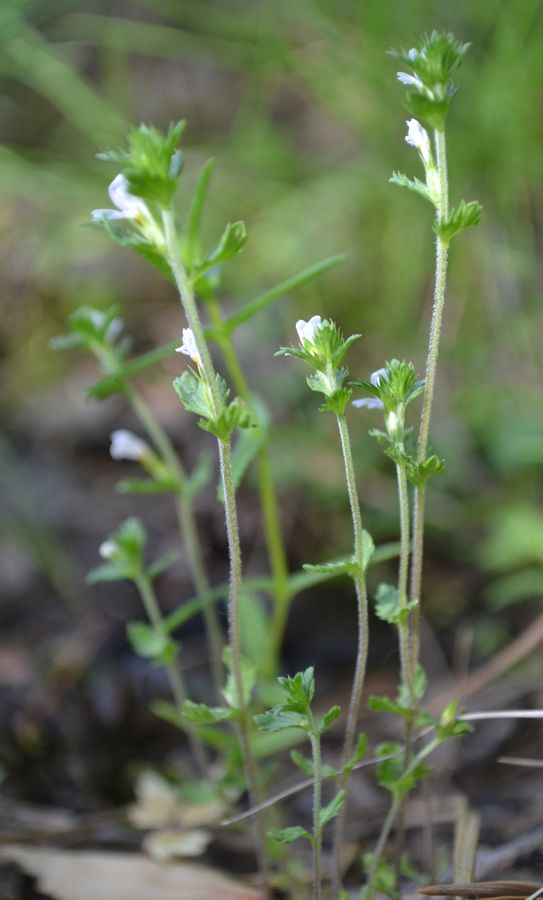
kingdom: Plantae
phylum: Tracheophyta
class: Magnoliopsida
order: Lamiales
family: Orobanchaceae
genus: Euphrasia
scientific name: Euphrasia frigida
